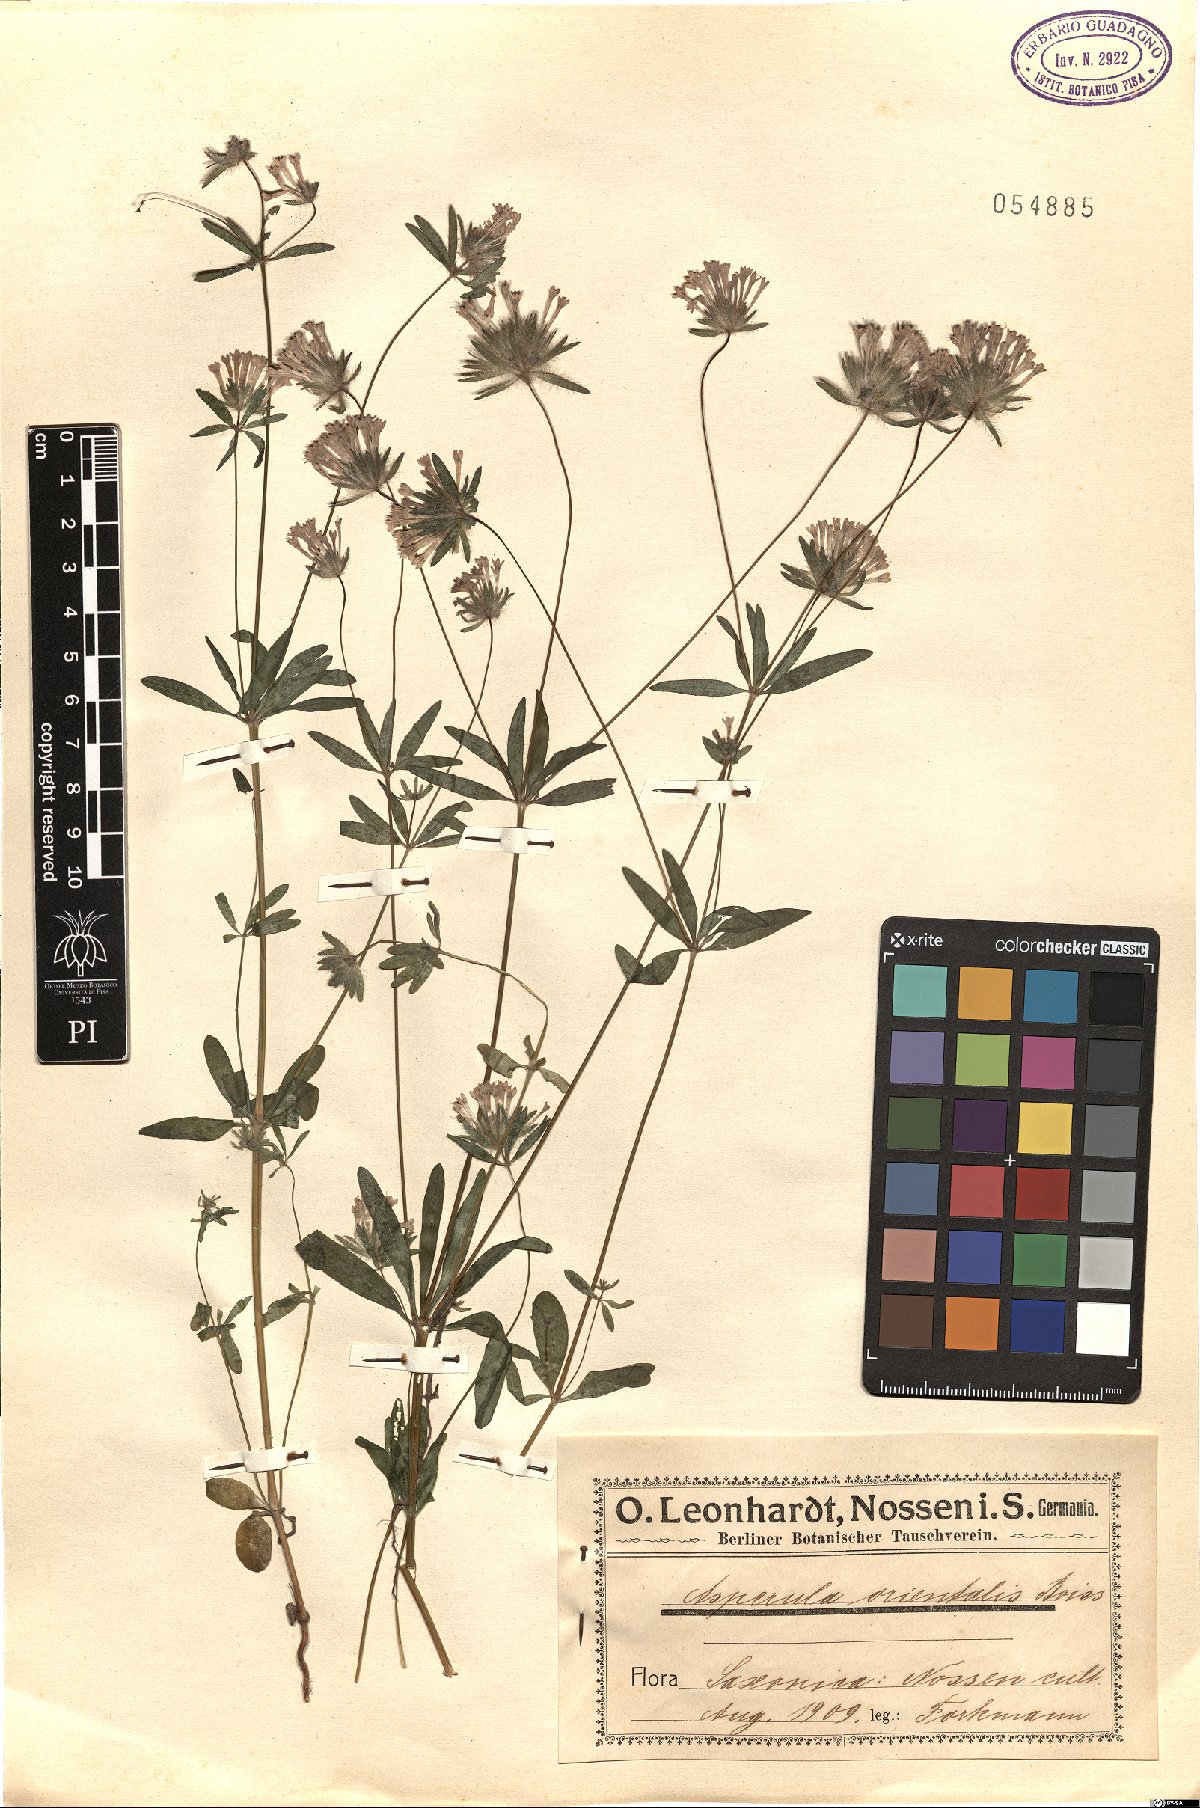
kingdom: Plantae
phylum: Tracheophyta
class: Magnoliopsida
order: Gentianales
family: Rubiaceae
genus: Asperula
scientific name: Asperula orientalis
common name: Oriental asperula
